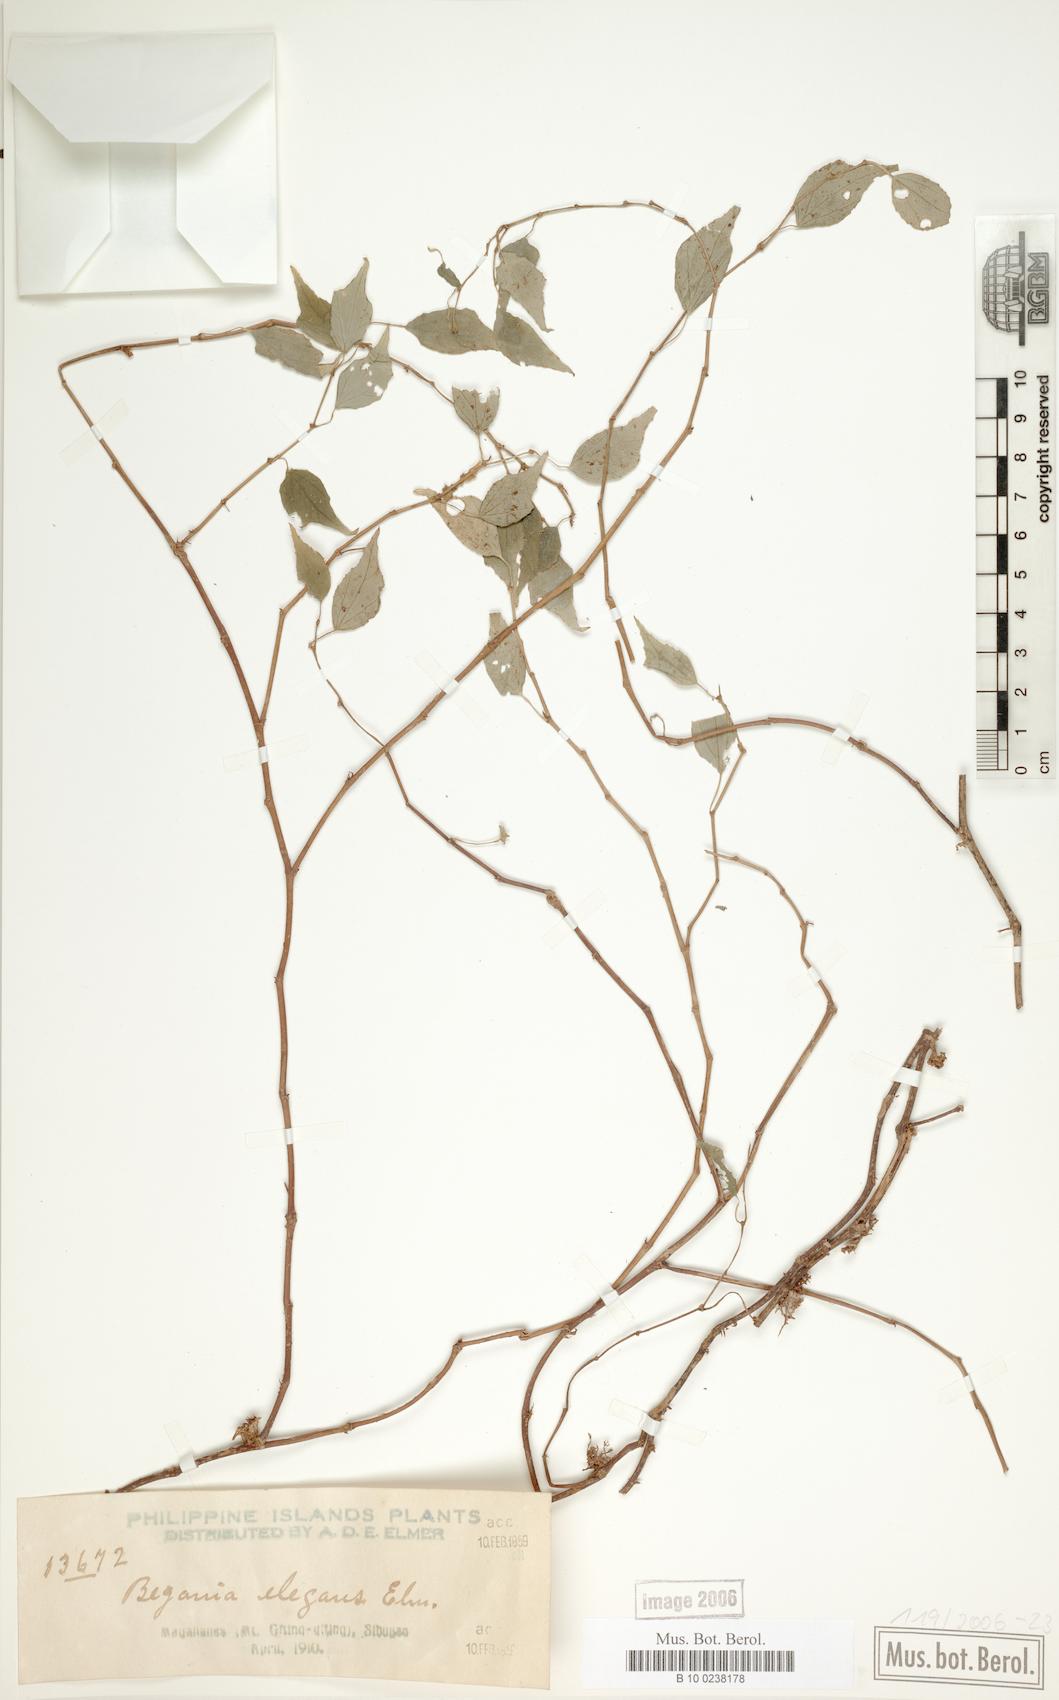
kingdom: Plantae
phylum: Tracheophyta
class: Magnoliopsida
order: Cucurbitales
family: Begoniaceae
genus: Begonia
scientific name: Begonia sarmentosa
